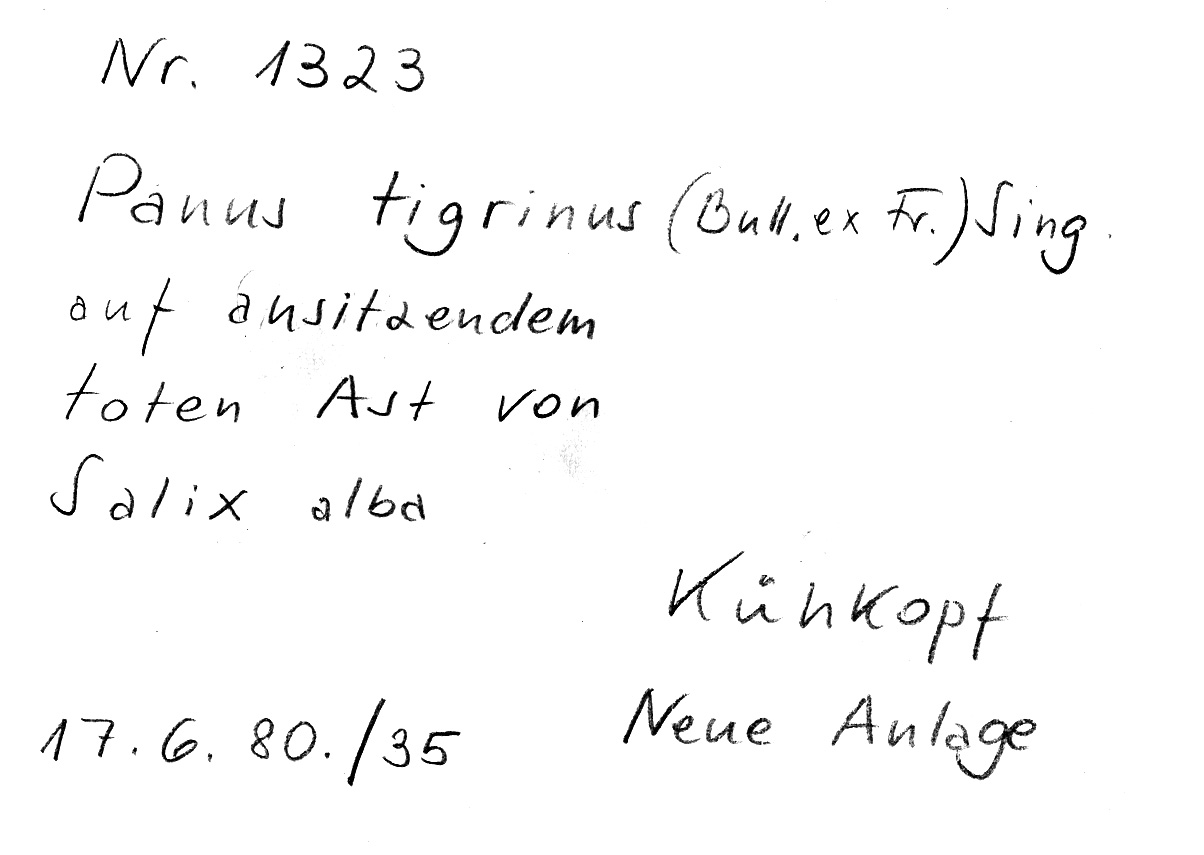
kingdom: Plantae
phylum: Tracheophyta
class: Magnoliopsida
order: Malpighiales
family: Salicaceae
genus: Salix
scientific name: Salix alba
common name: White willow
